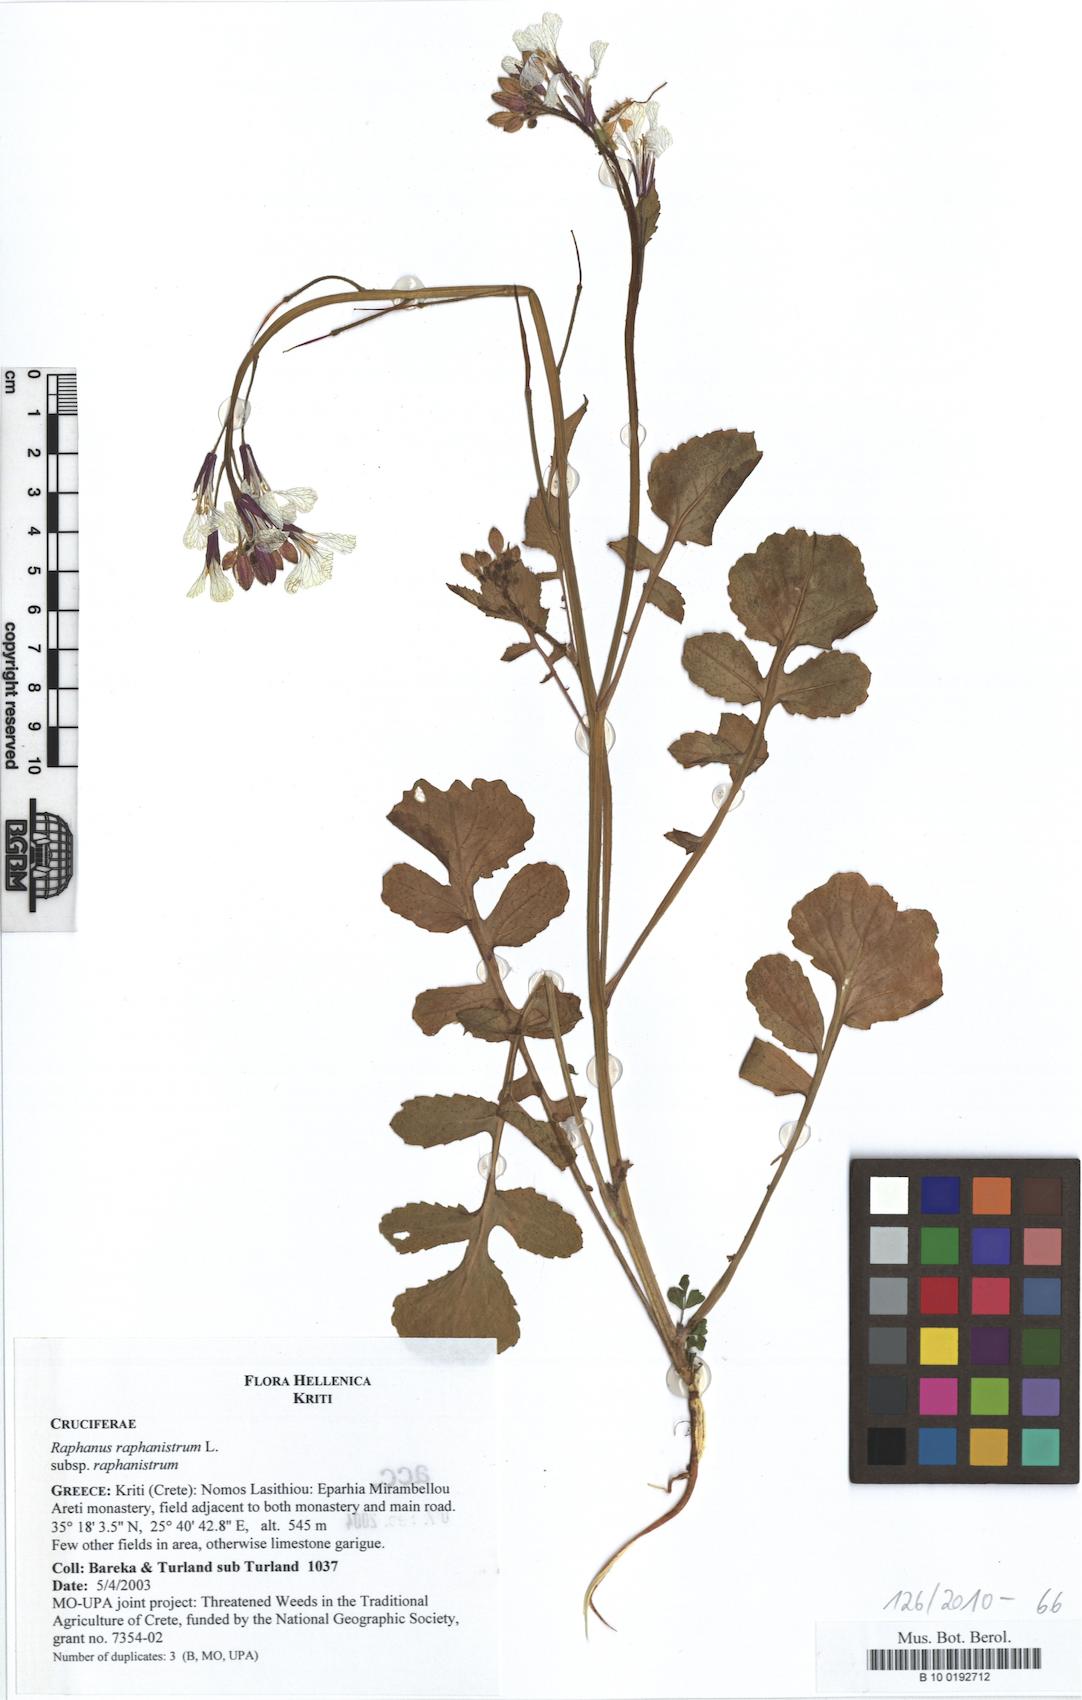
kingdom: Plantae
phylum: Tracheophyta
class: Magnoliopsida
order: Brassicales
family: Brassicaceae
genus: Raphanus
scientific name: Raphanus raphanistrum
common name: Wild radish
